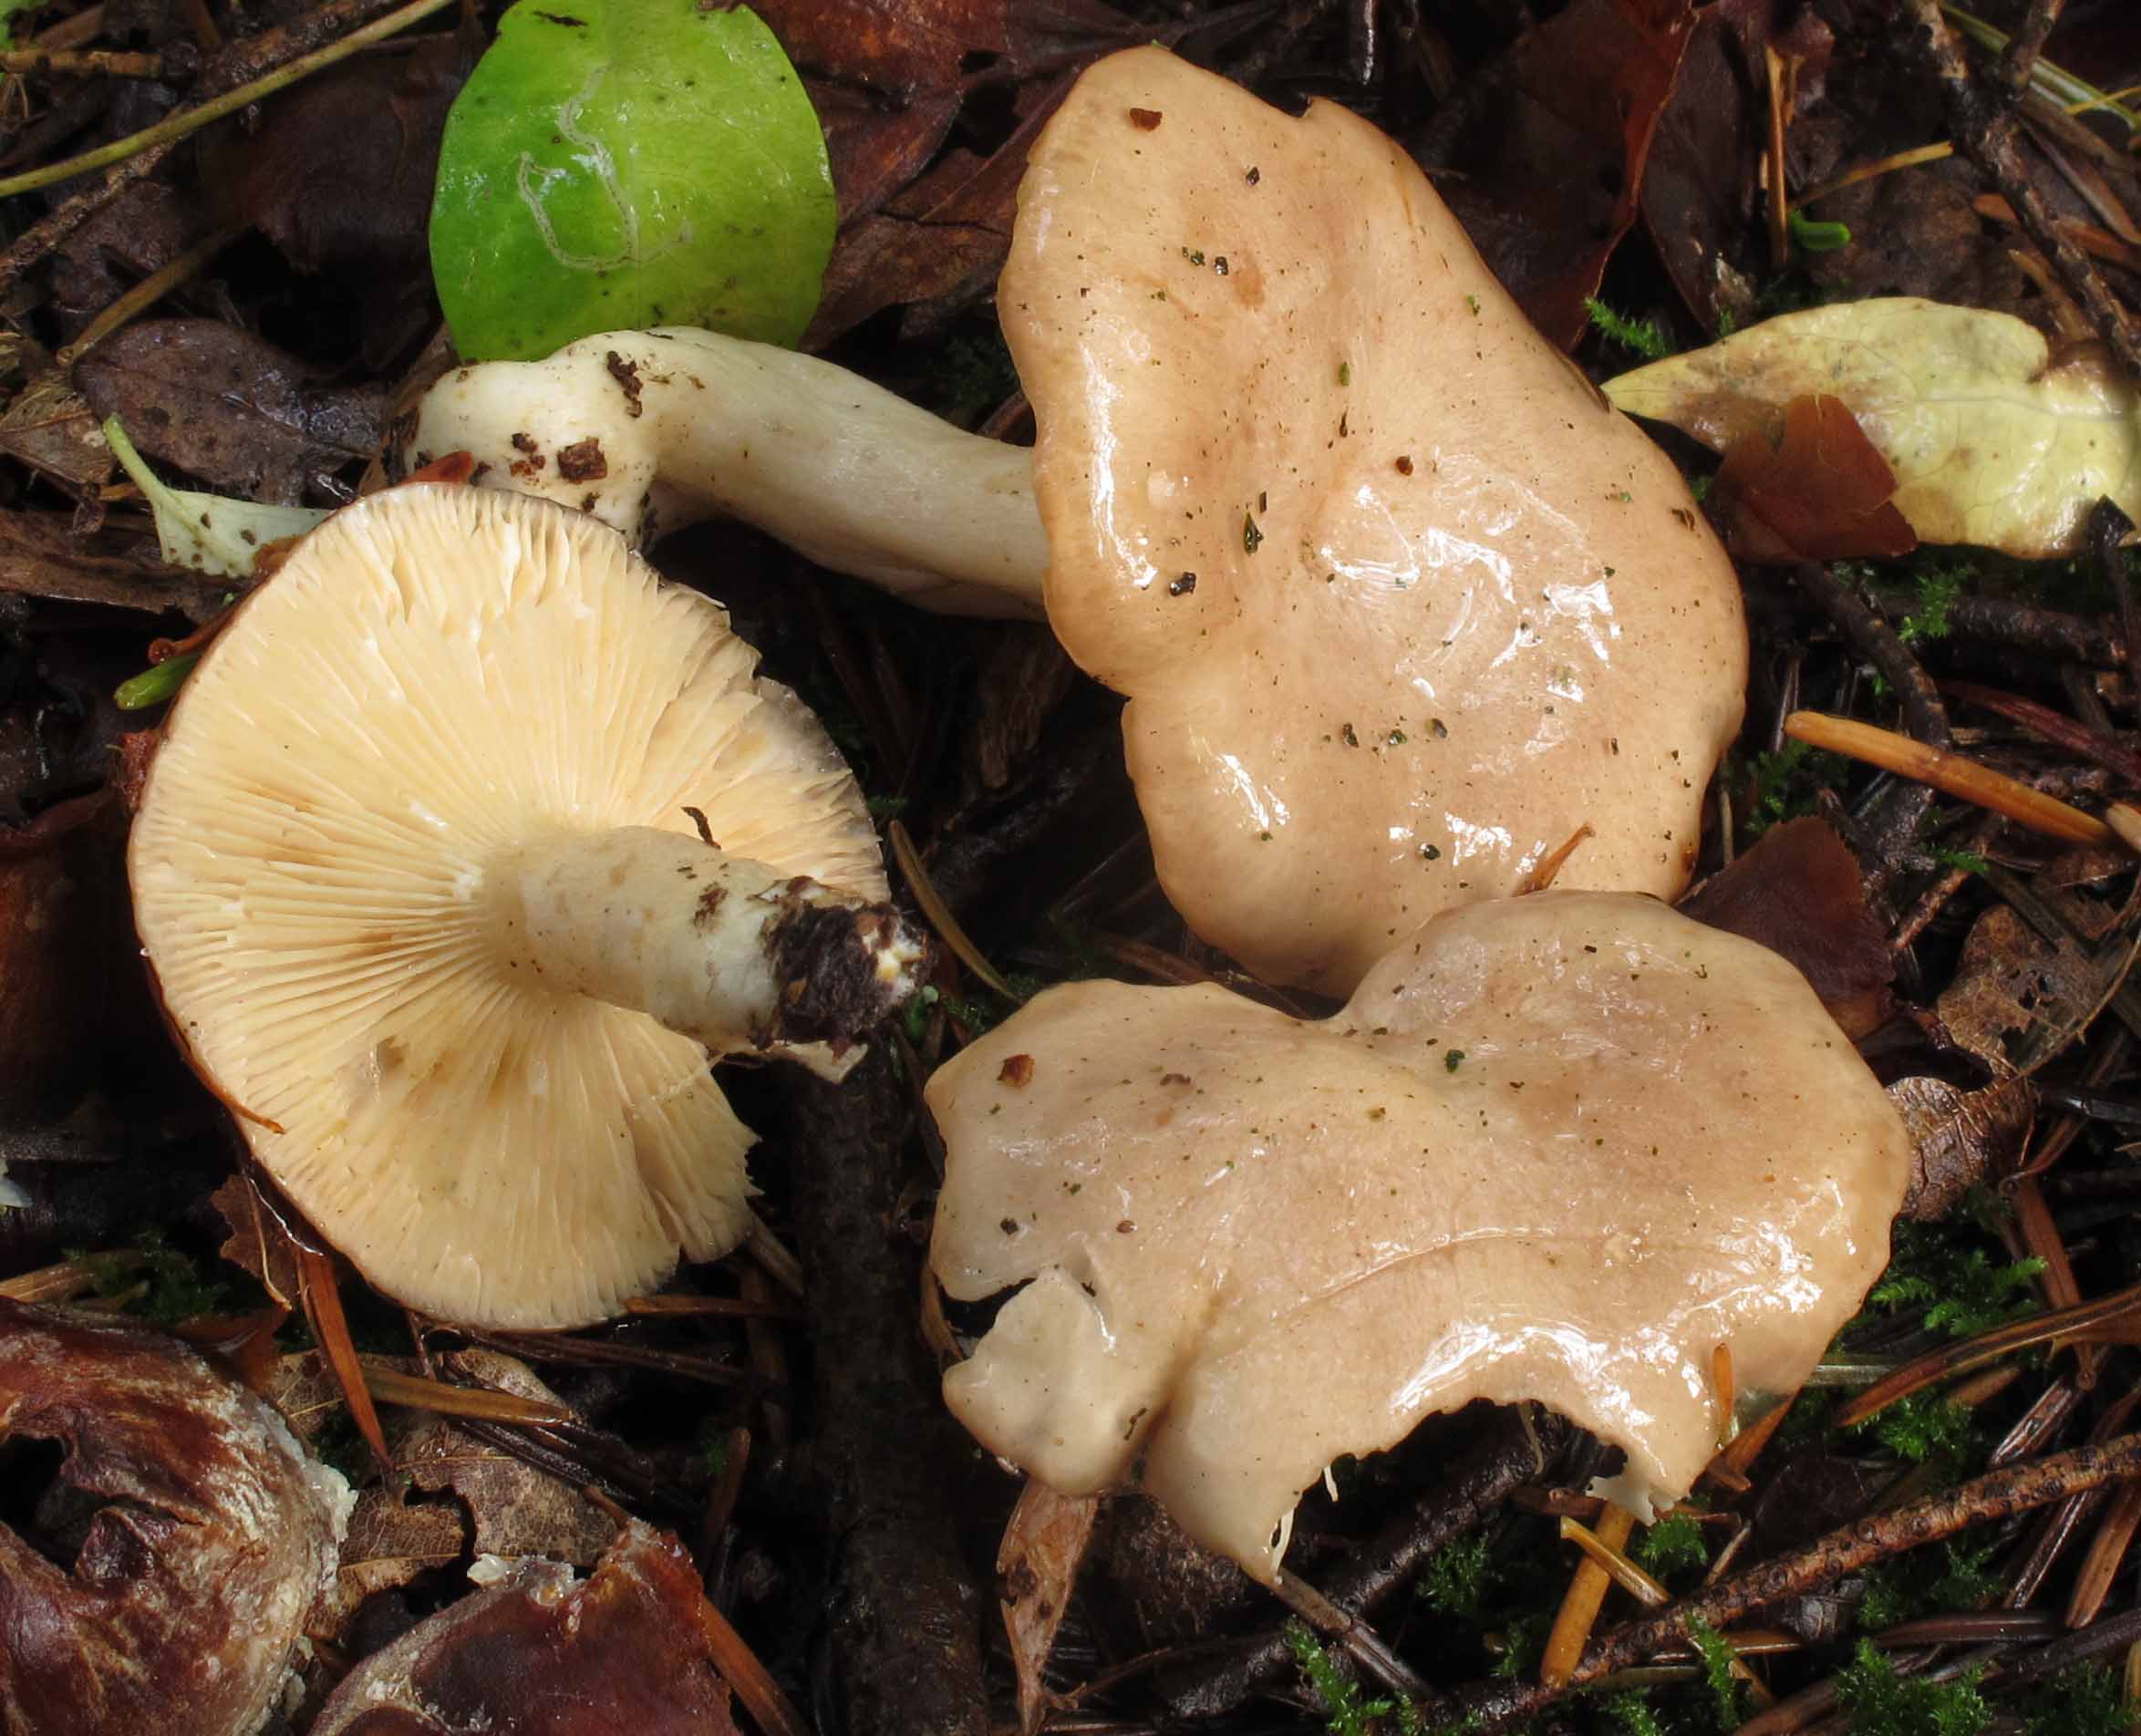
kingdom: Fungi
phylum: Basidiomycota
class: Agaricomycetes
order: Russulales
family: Russulaceae
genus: Lactarius
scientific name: Lactarius albocarneus
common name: ædelgran-mælkehat
